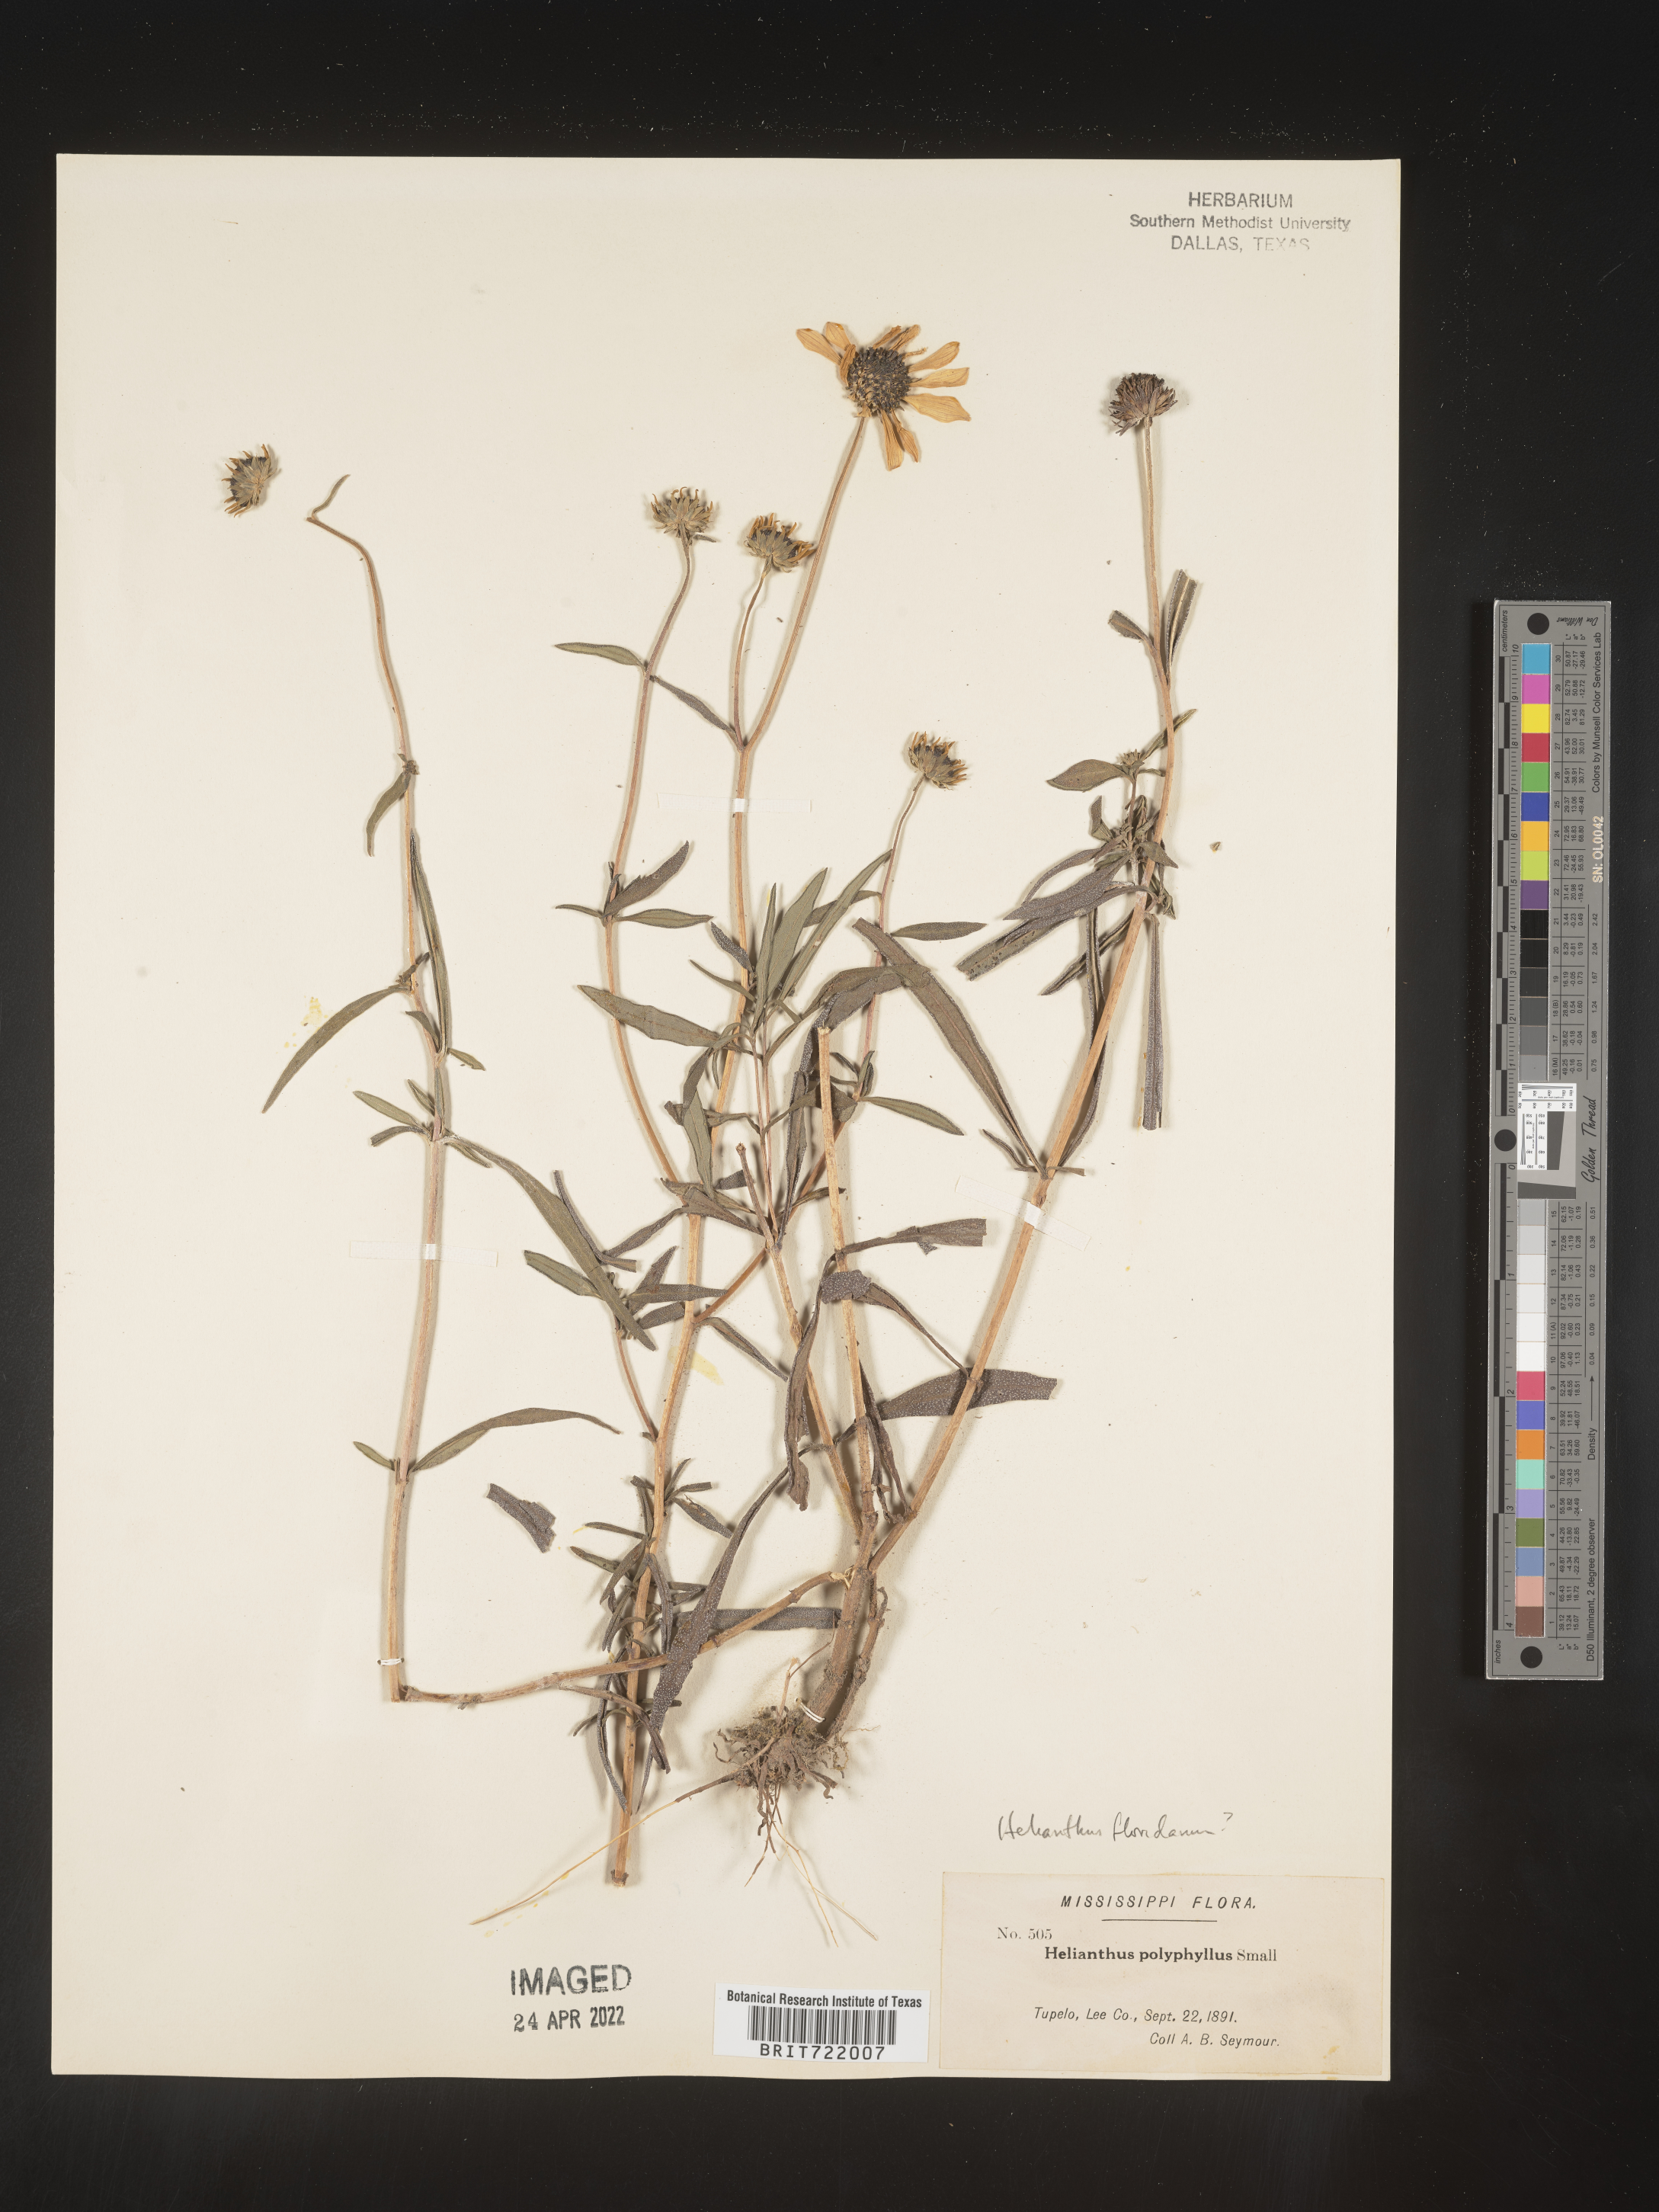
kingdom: Plantae
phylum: Tracheophyta
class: Magnoliopsida
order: Asterales
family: Asteraceae
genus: Helianthus
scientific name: Helianthus
